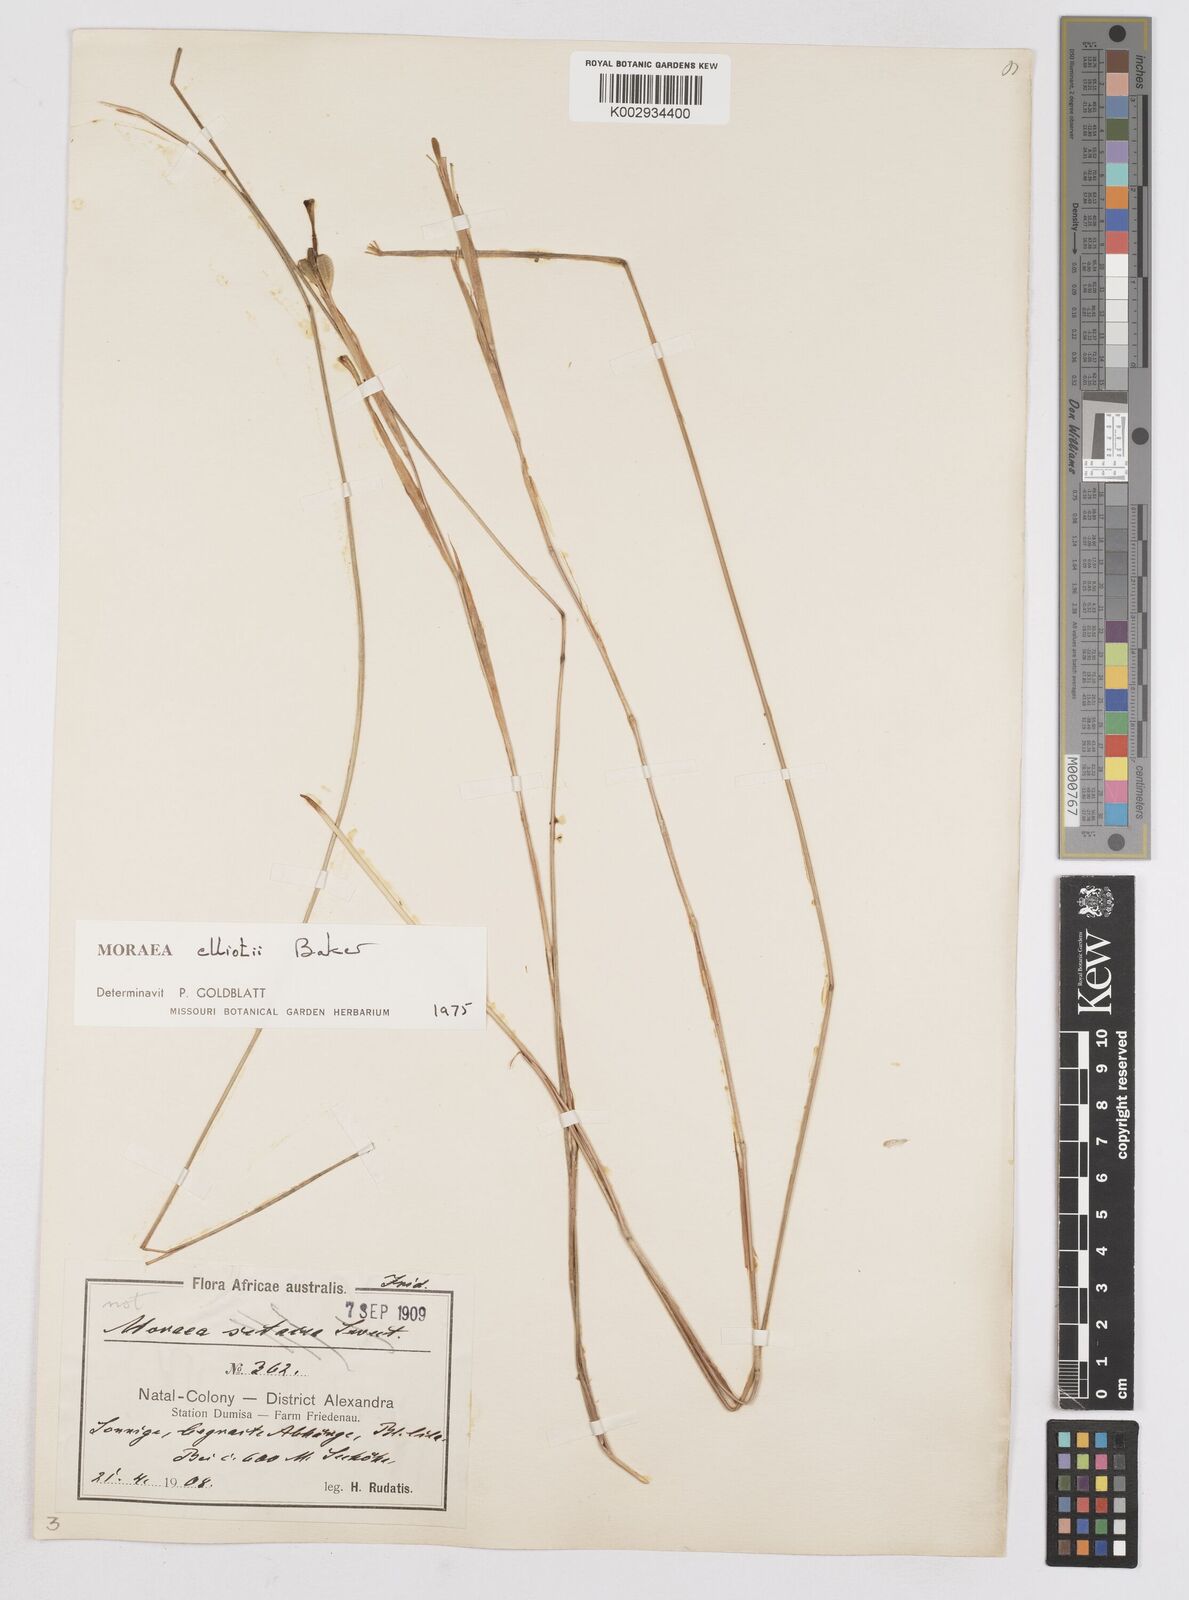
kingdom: Plantae
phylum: Tracheophyta
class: Liliopsida
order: Asparagales
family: Iridaceae
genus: Moraea
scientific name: Moraea elliotii
